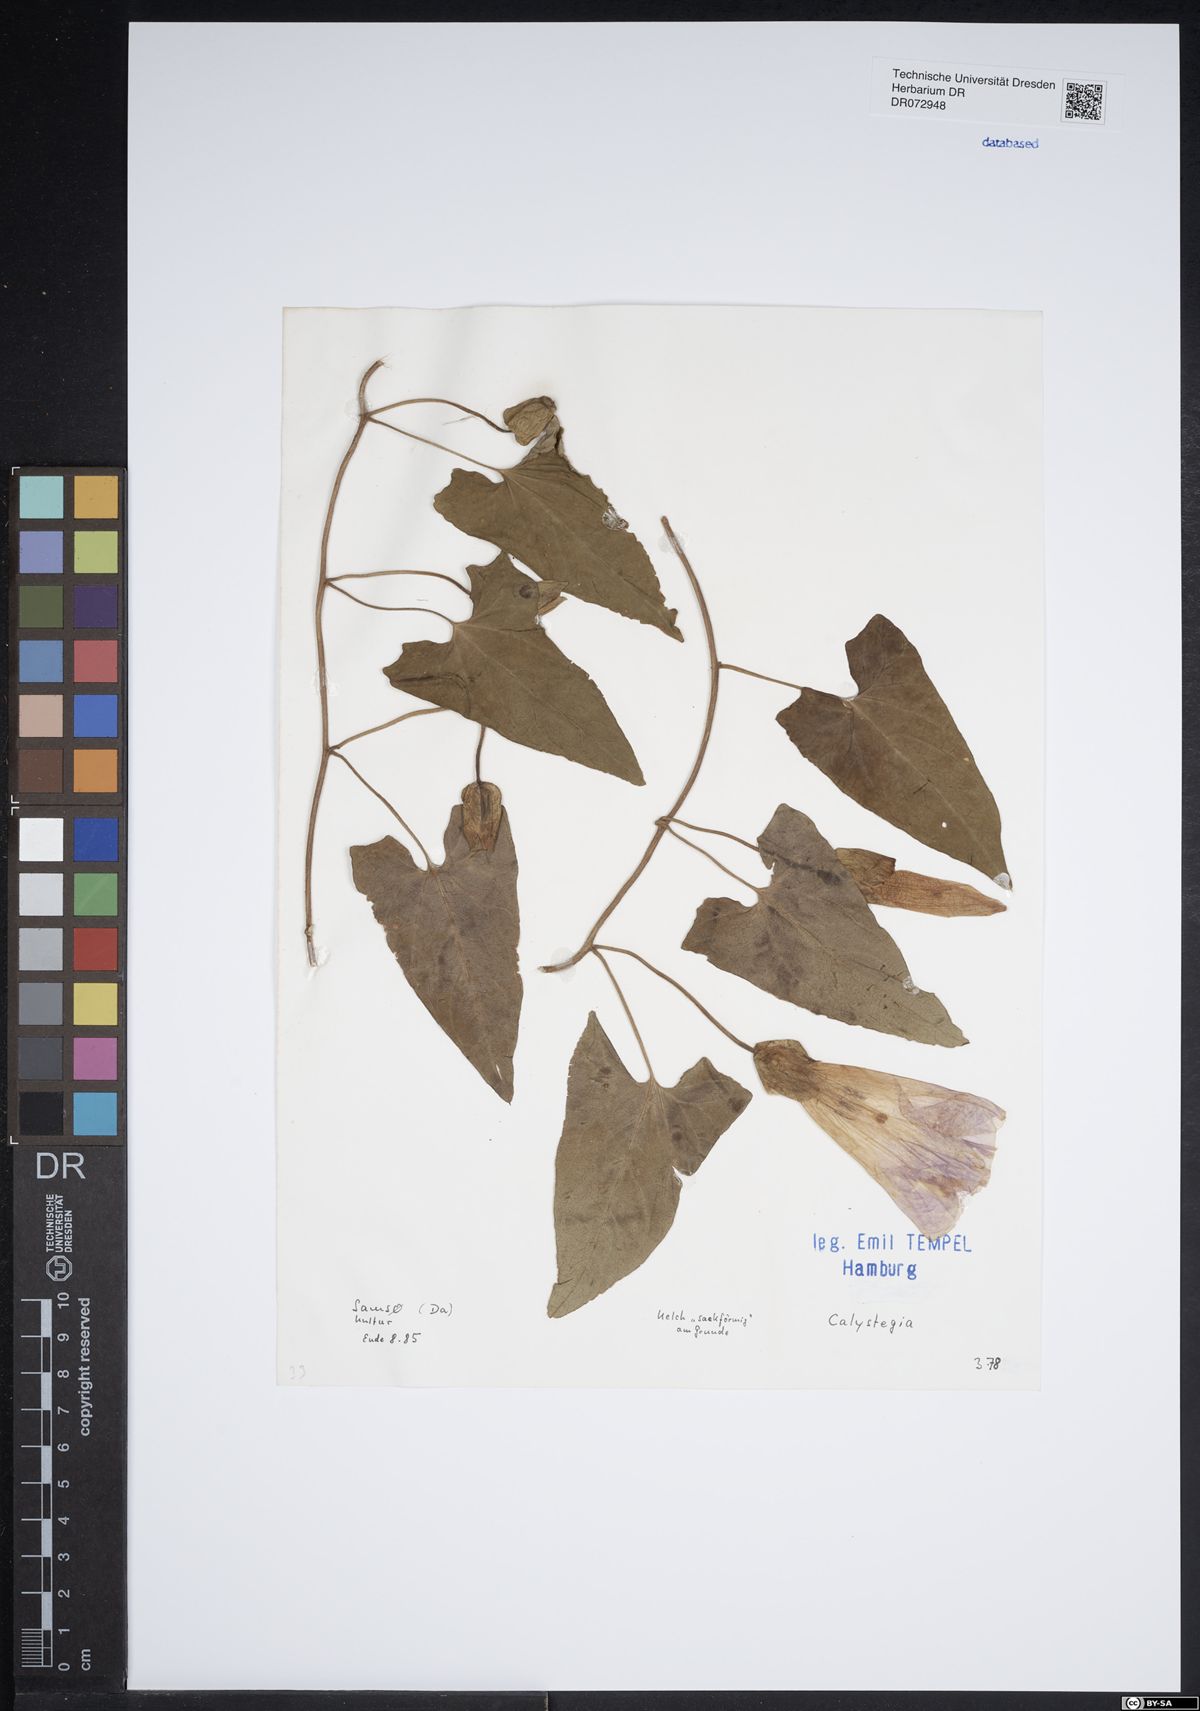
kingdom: Plantae
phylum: Tracheophyta
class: Magnoliopsida
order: Solanales
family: Convolvulaceae
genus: Calystegia
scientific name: Calystegia
